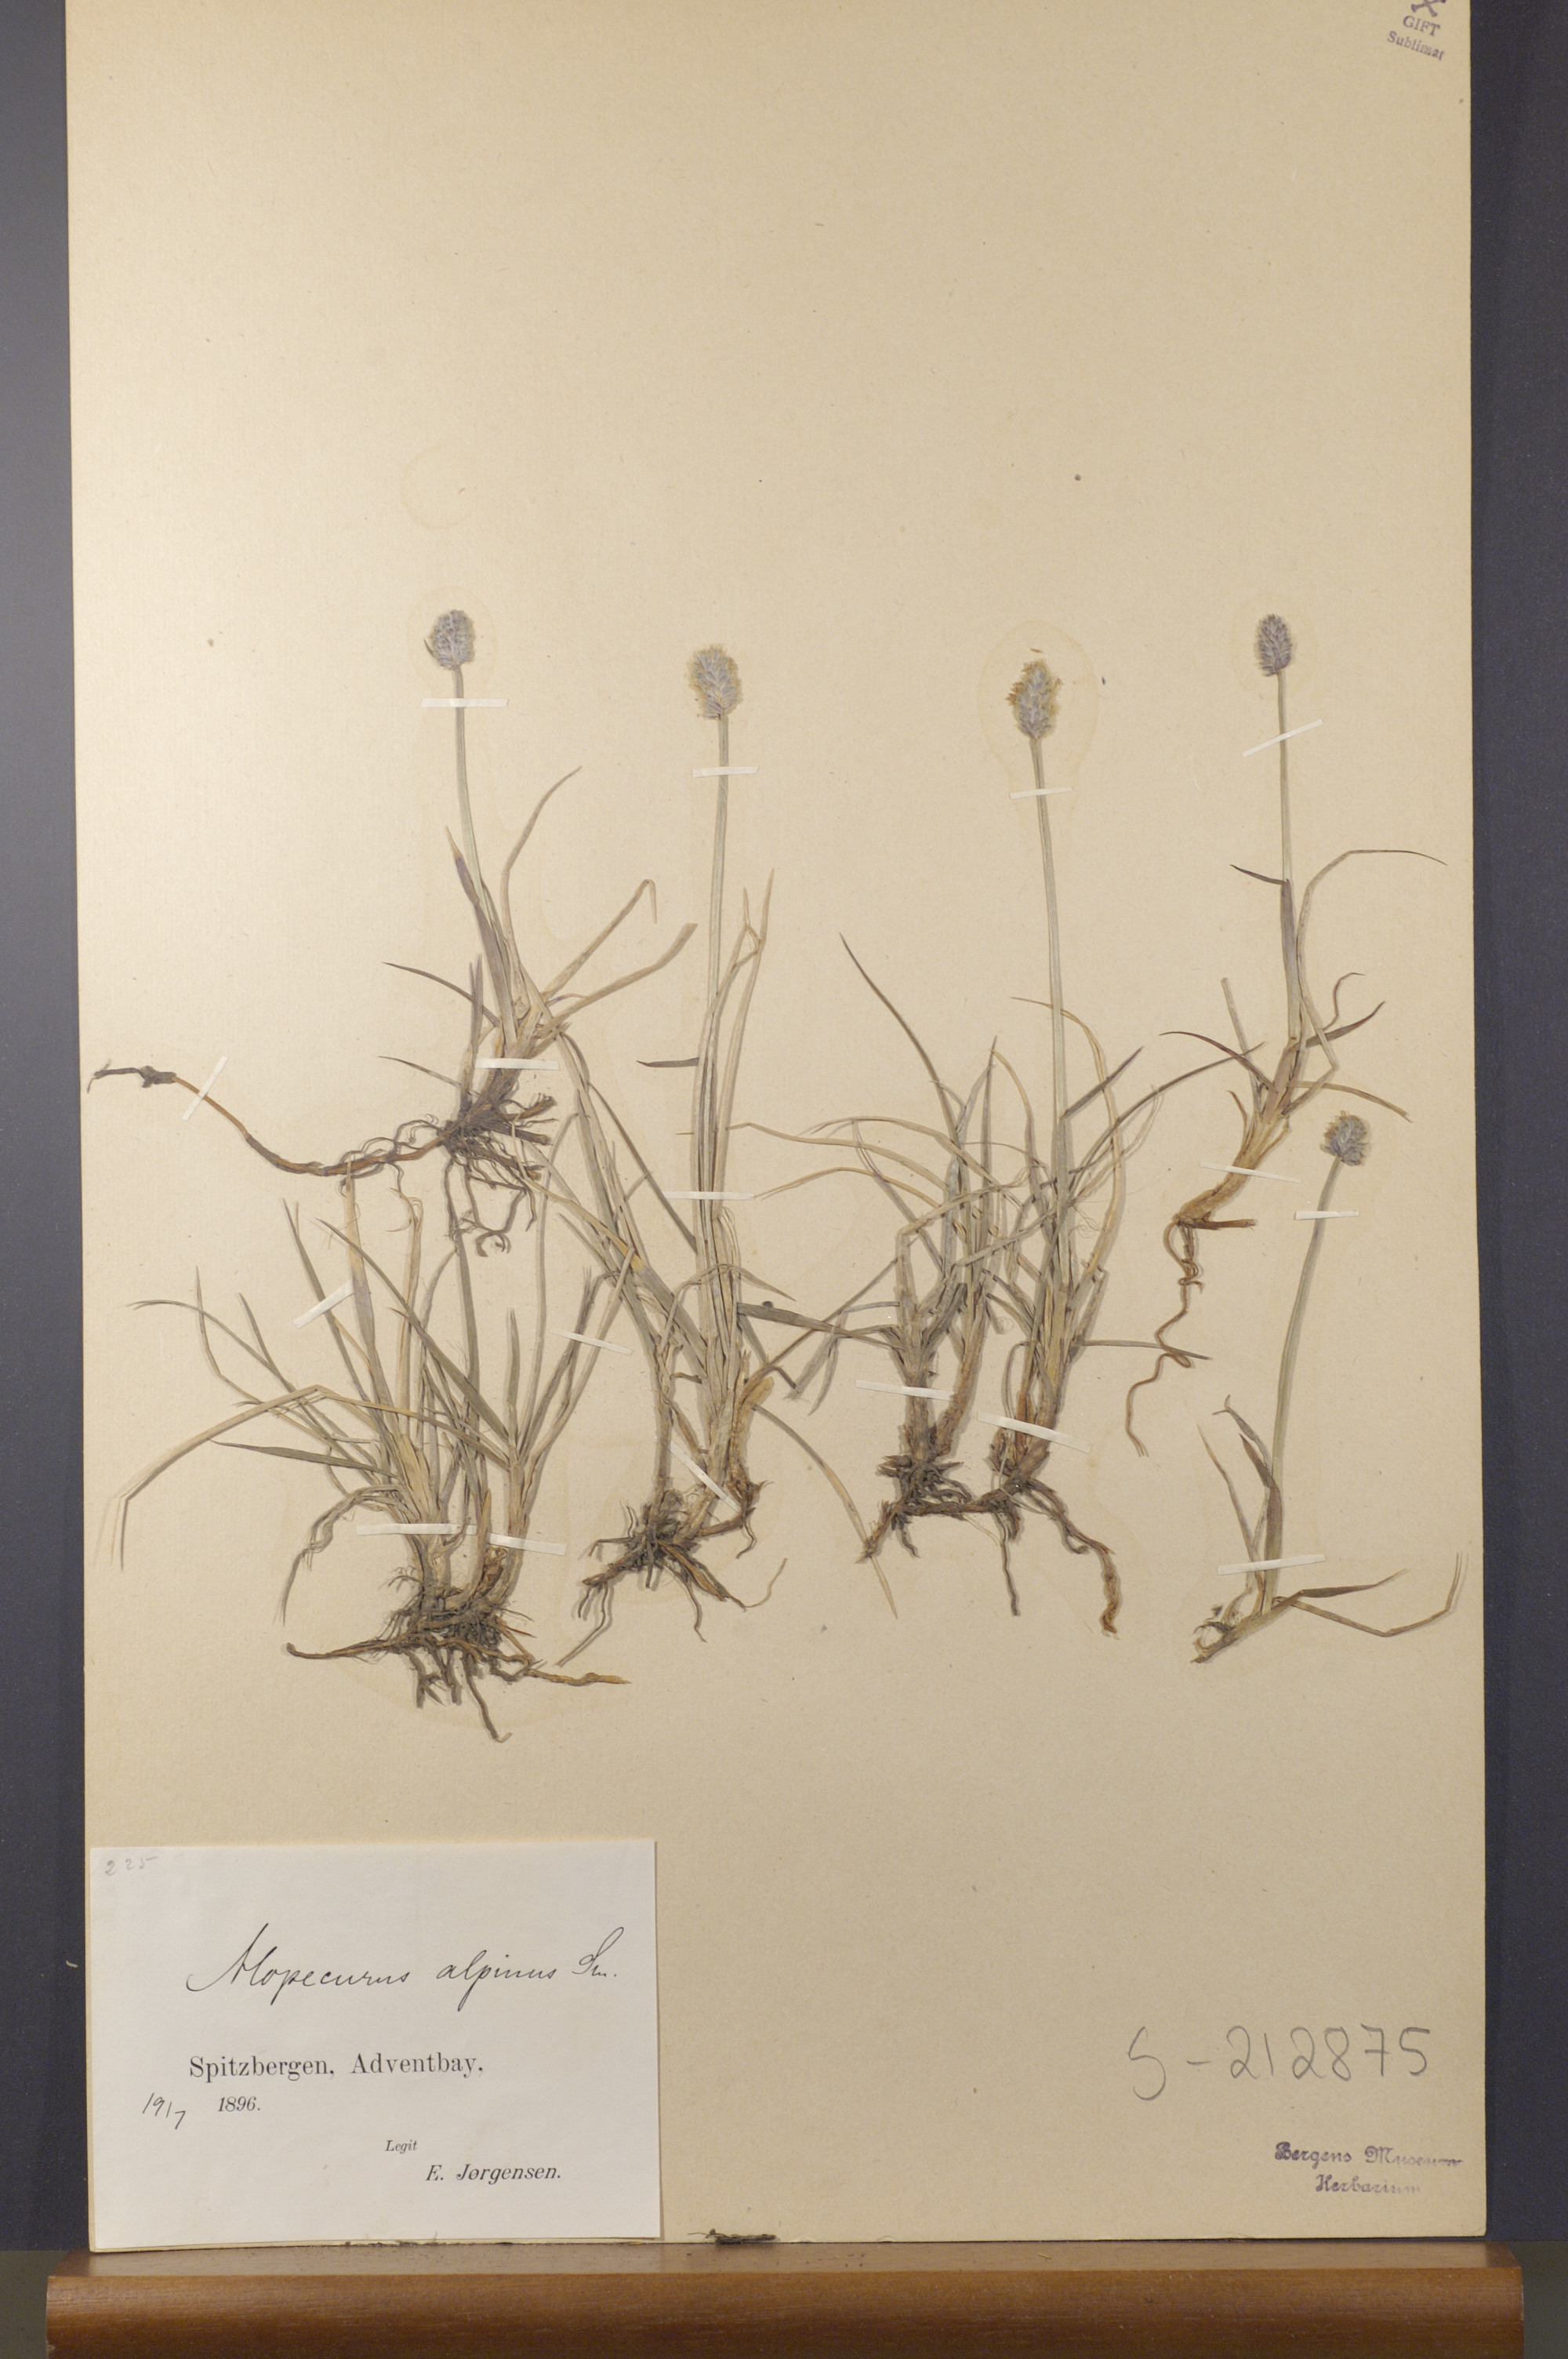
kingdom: Plantae
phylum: Tracheophyta
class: Liliopsida
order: Poales
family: Poaceae
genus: Alopecurus
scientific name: Alopecurus magellanicus
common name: Alpine foxtail
